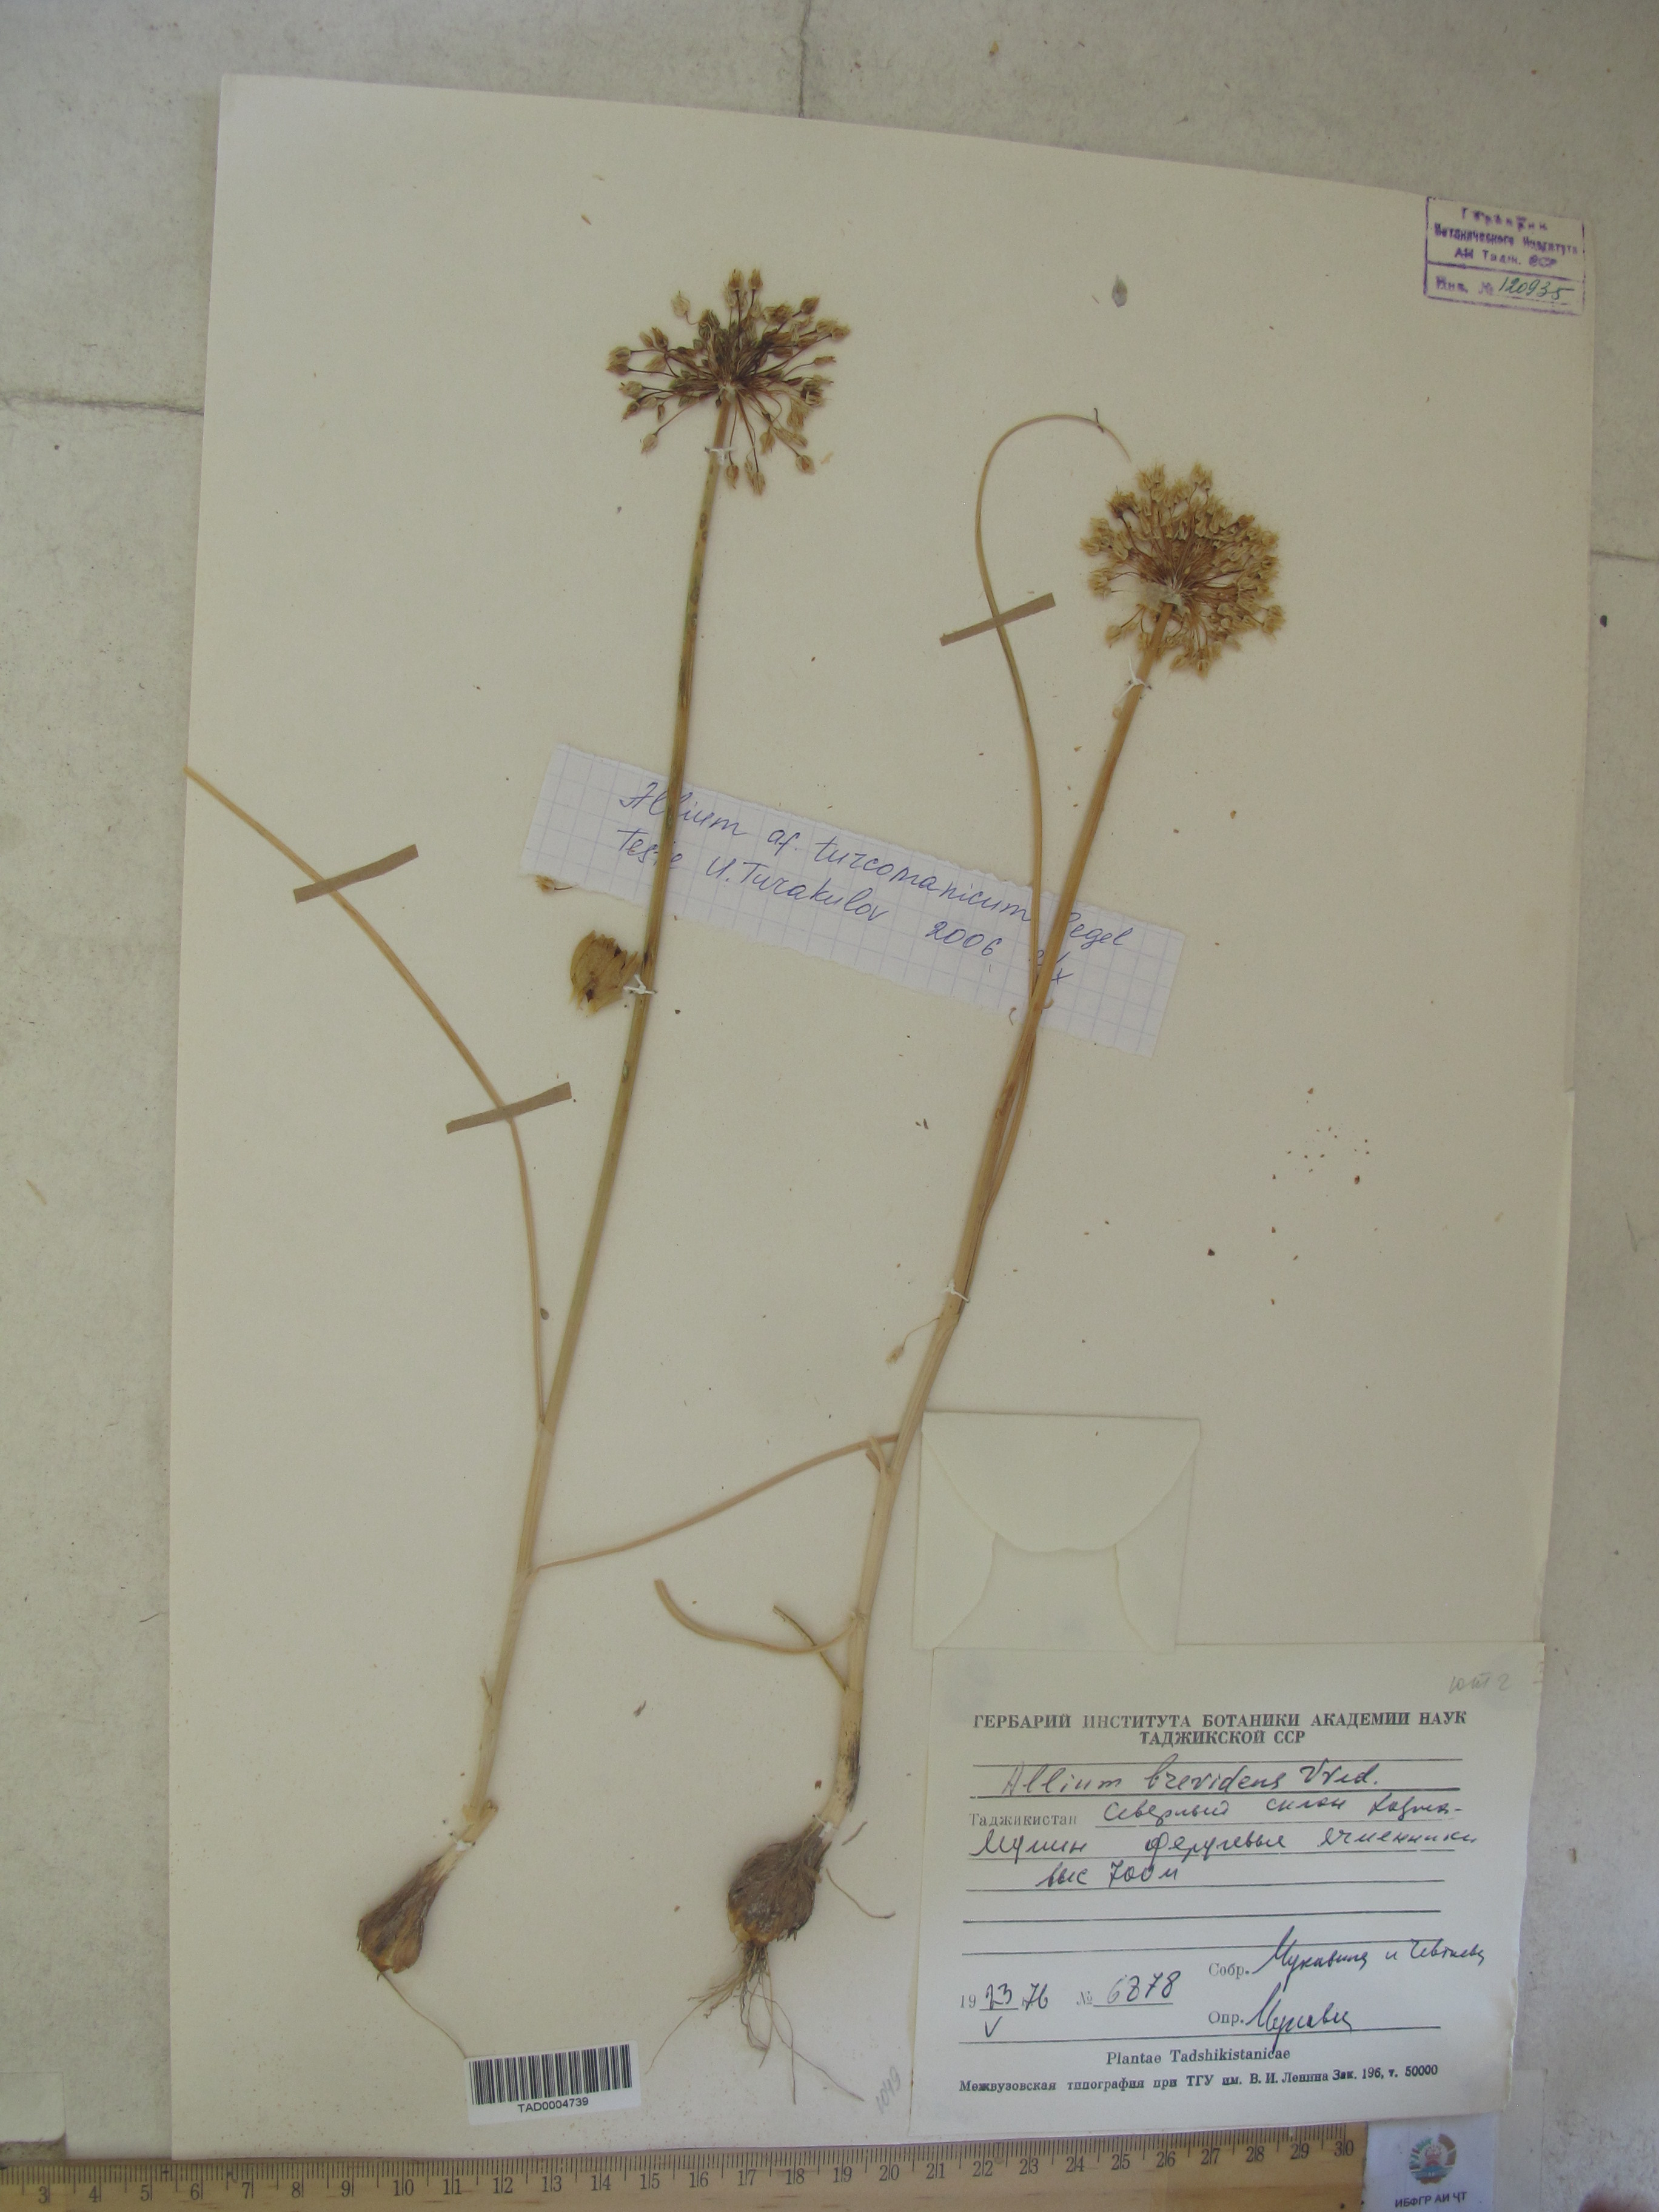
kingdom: Plantae
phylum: Tracheophyta
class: Liliopsida
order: Asparagales
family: Amaryllidaceae
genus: Allium
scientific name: Allium brevidens
